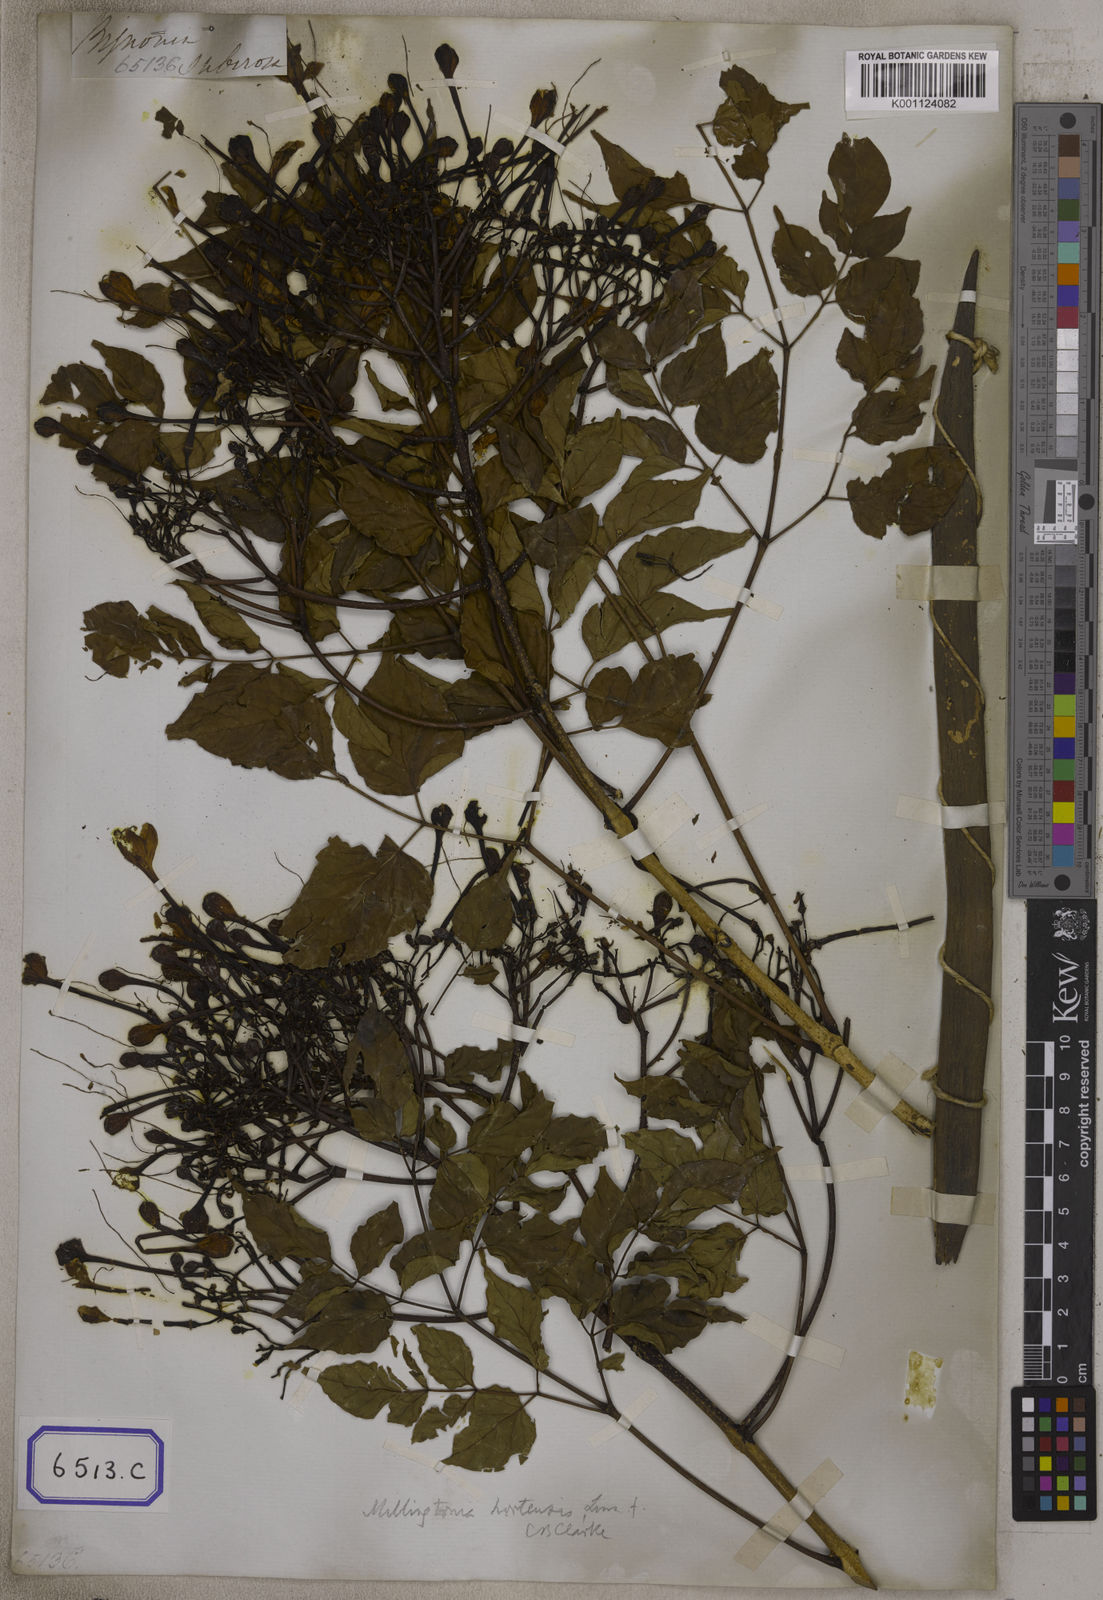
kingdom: Plantae
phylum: Tracheophyta
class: Magnoliopsida
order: Lamiales
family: Bignoniaceae
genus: Bignonia
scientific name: Bignonia
